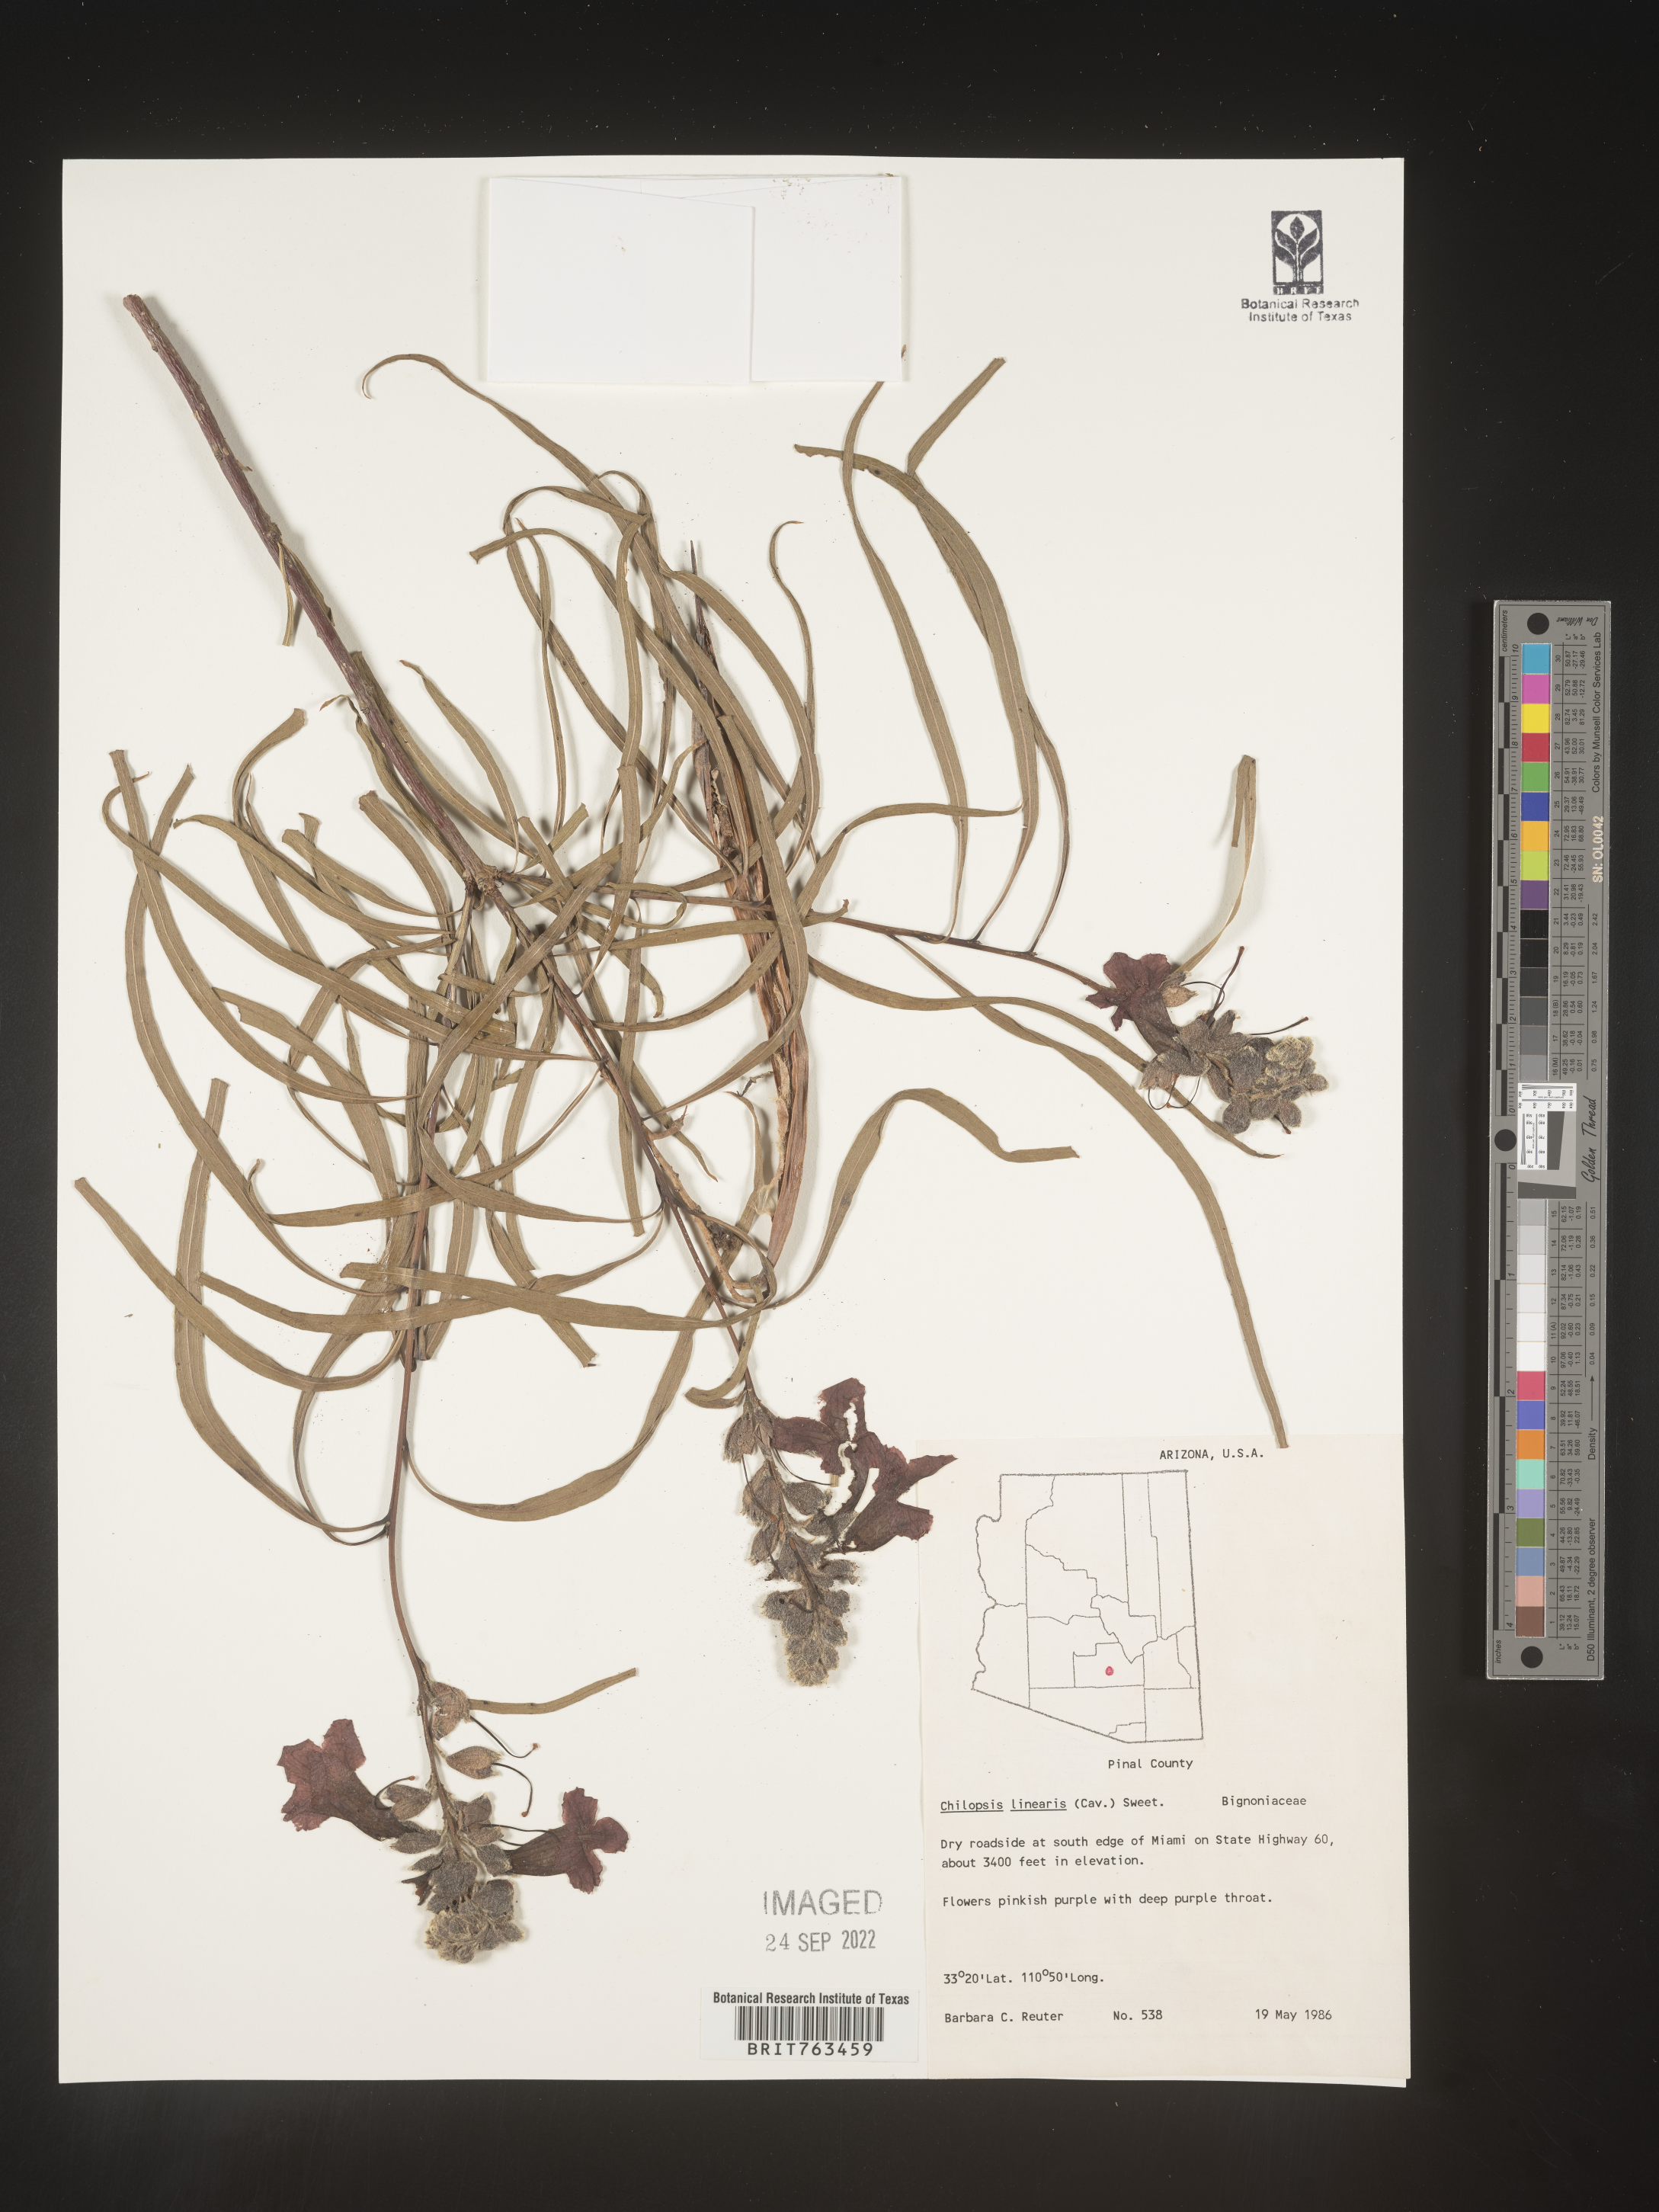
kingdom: Plantae
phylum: Tracheophyta
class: Magnoliopsida
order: Lamiales
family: Bignoniaceae
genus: Chilopsis
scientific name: Chilopsis linearis
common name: Desert-willow
